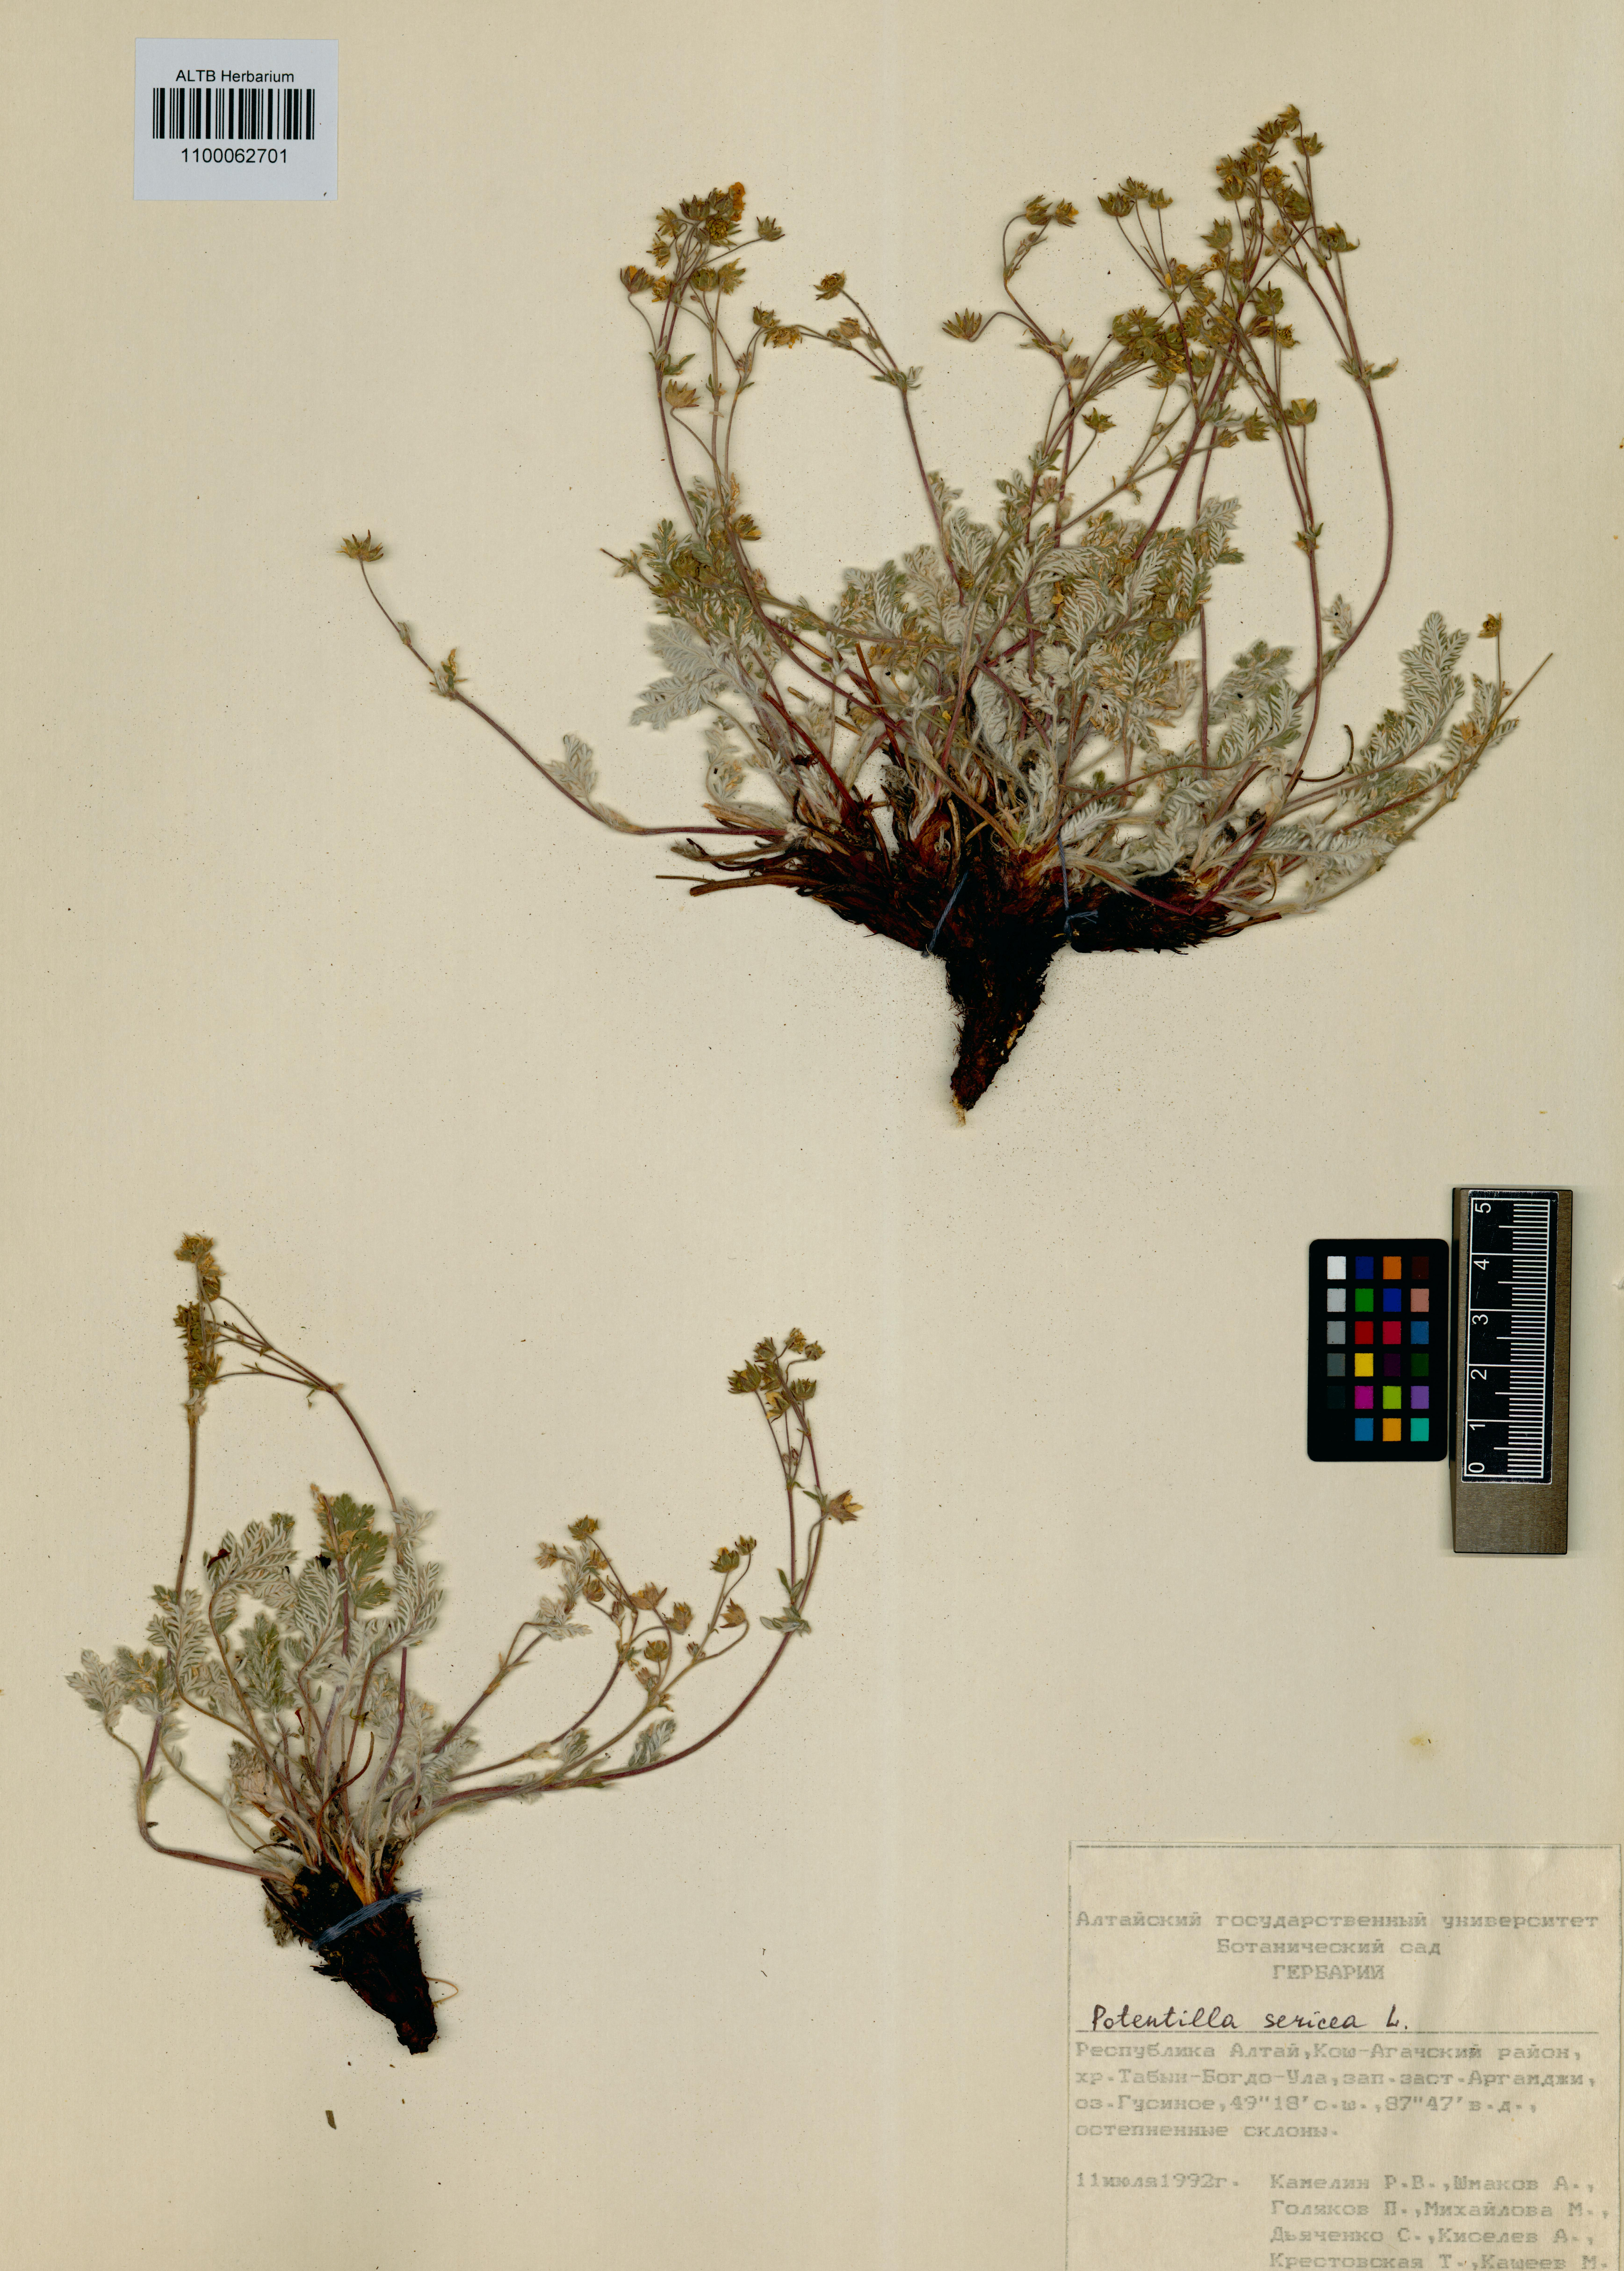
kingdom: Plantae
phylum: Tracheophyta
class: Magnoliopsida
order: Rosales
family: Rosaceae
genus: Potentilla
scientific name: Potentilla sericea
